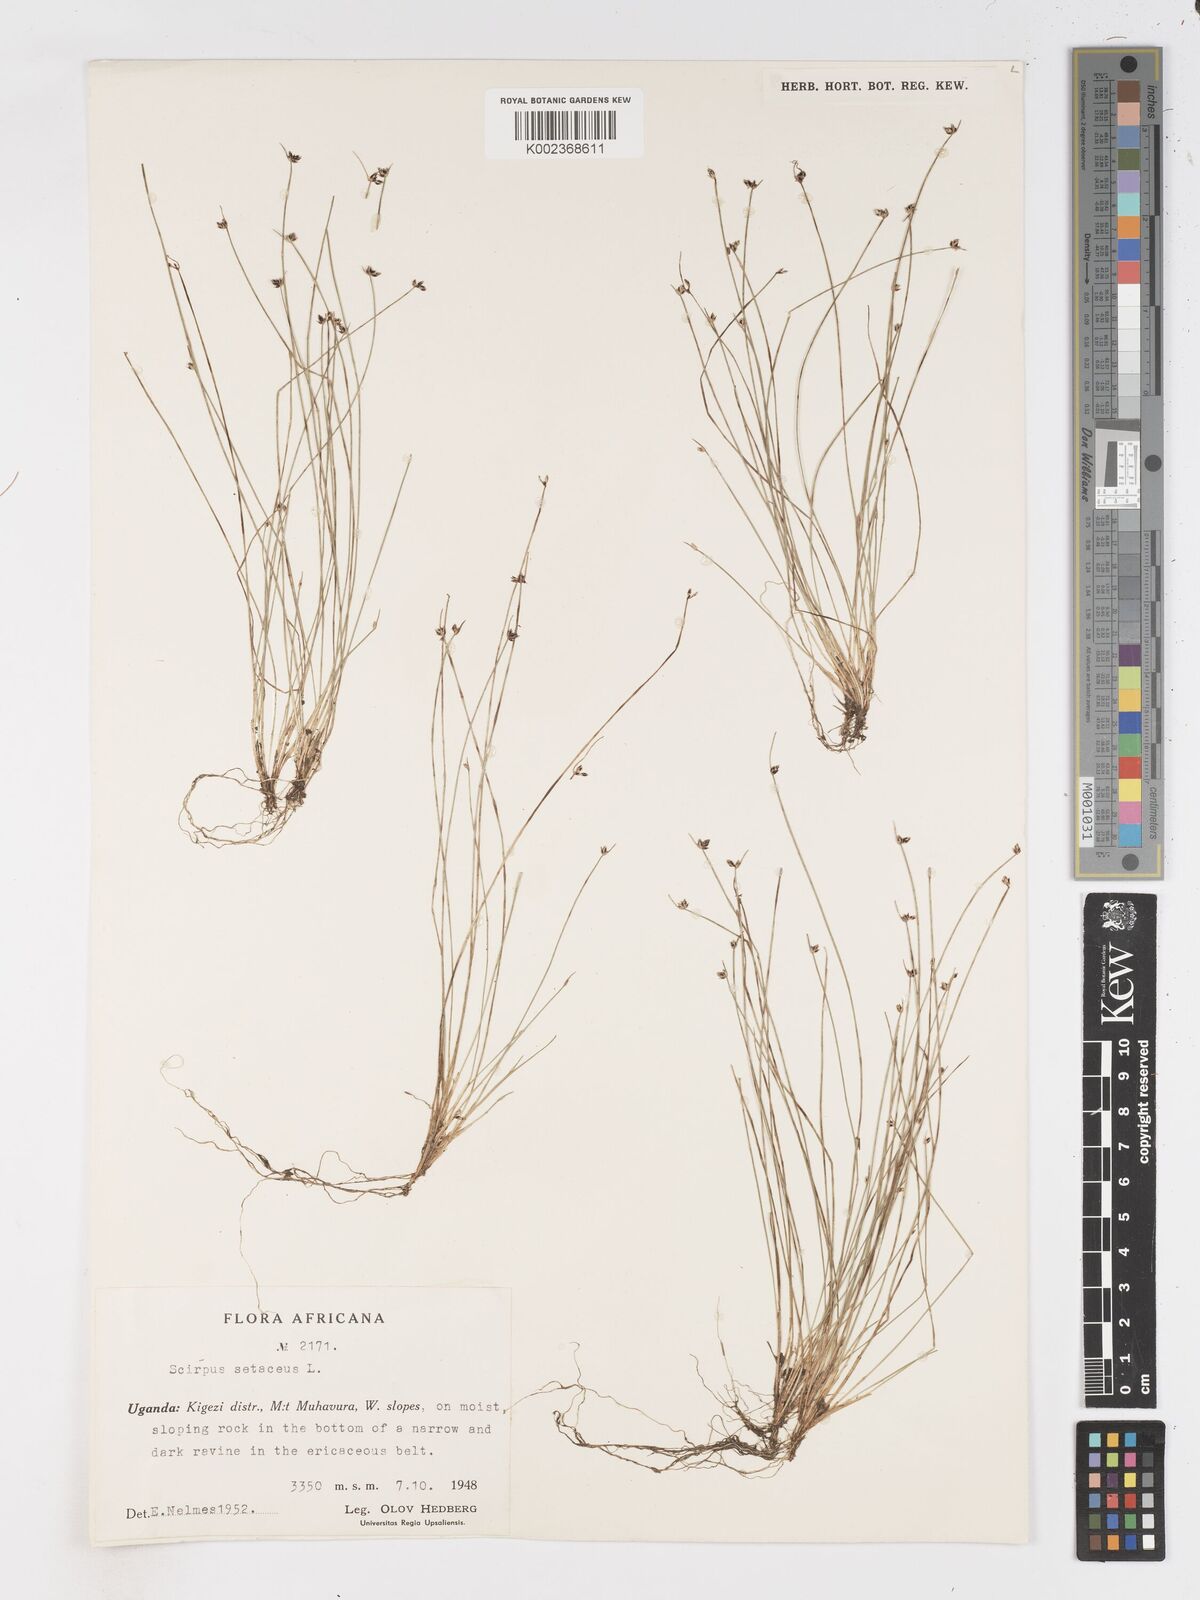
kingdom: Plantae
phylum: Tracheophyta
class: Liliopsida
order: Poales
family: Cyperaceae
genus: Isolepis
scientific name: Isolepis setacea
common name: Bristle club-rush
